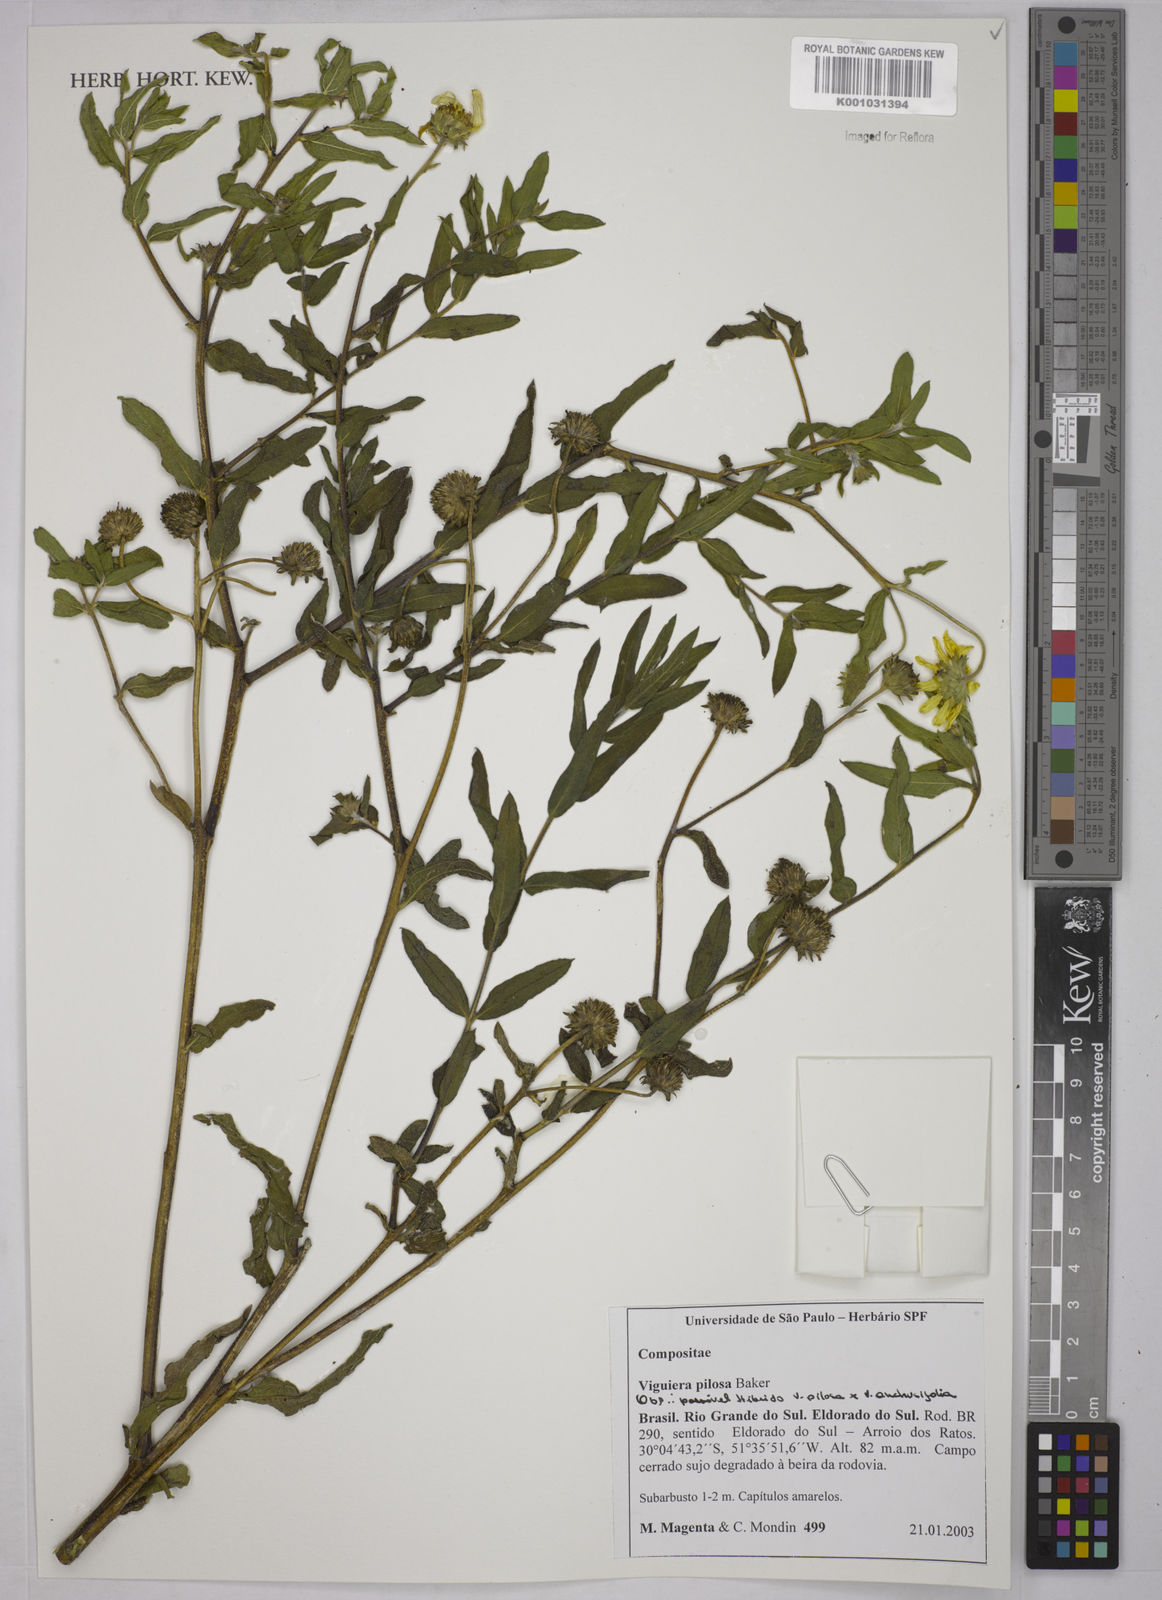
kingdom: Plantae
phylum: Tracheophyta
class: Magnoliopsida
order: Asterales
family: Asteraceae
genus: Aldama
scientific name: Aldama pilosa
